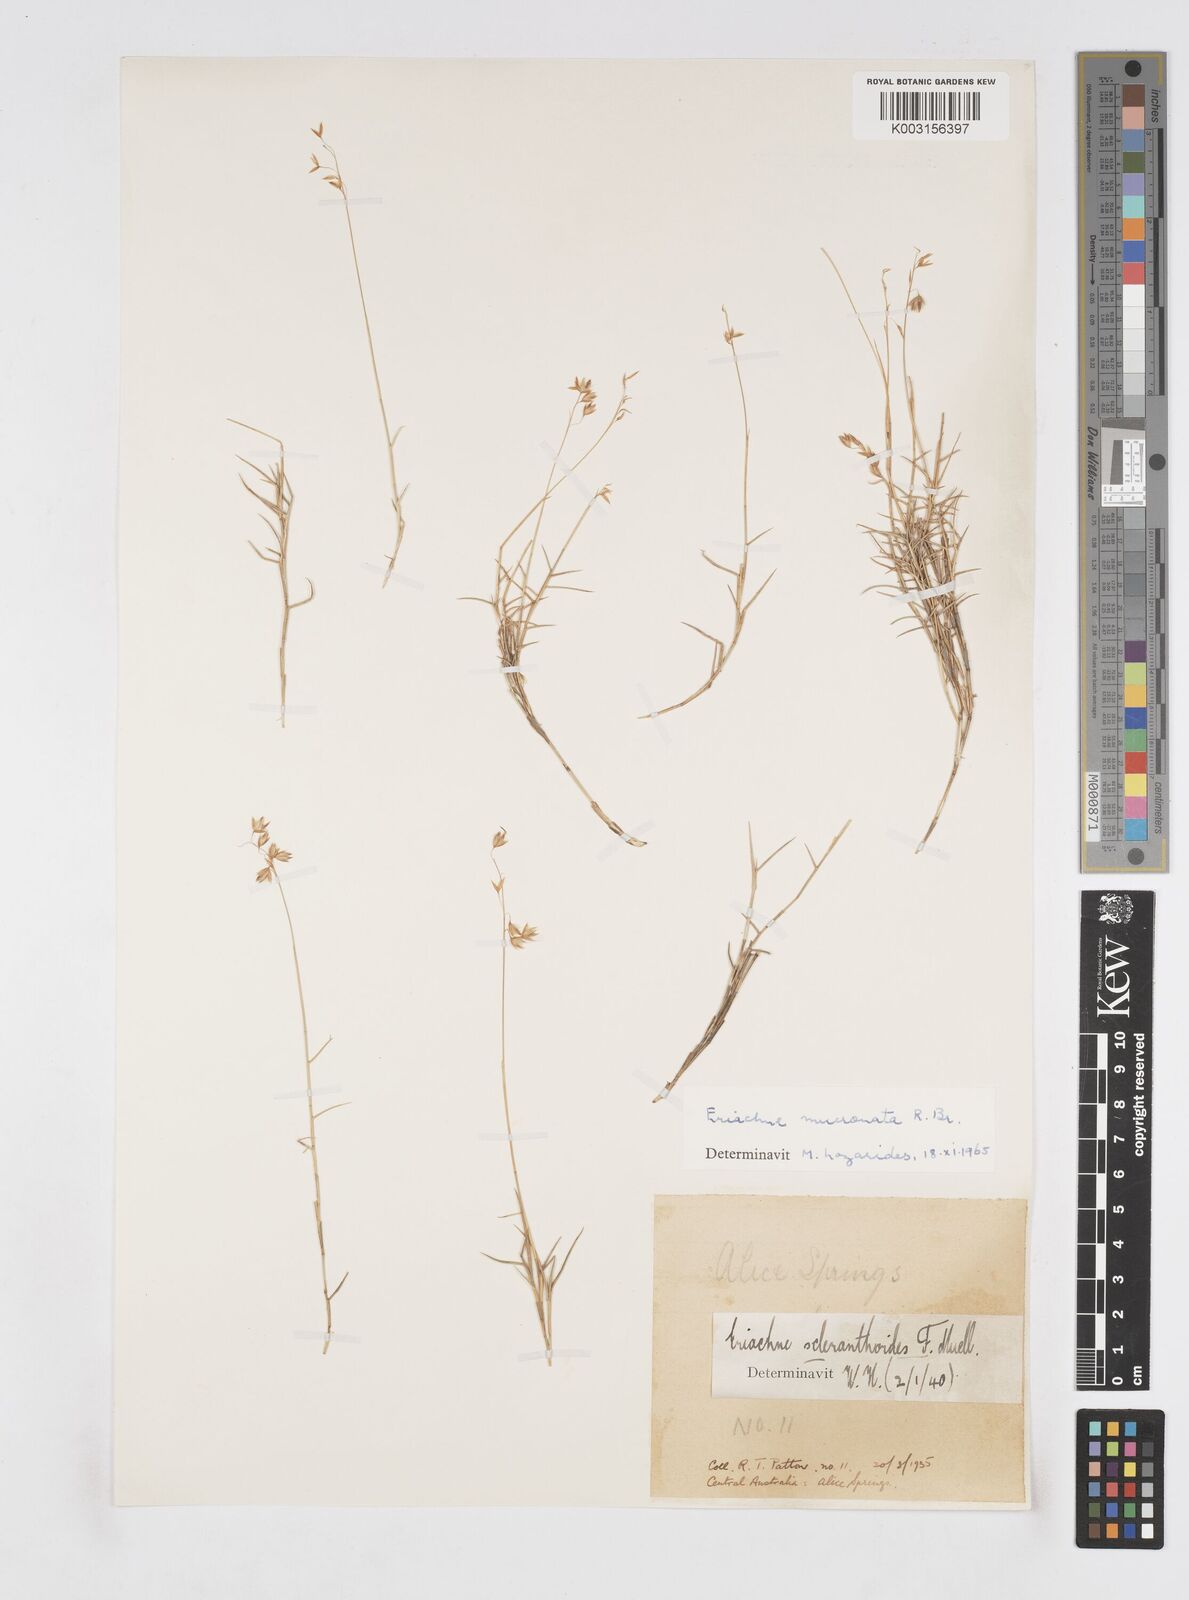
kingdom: Plantae
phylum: Tracheophyta
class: Liliopsida
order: Poales
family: Poaceae
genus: Eriachne
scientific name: Eriachne mucronata
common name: Mountain wanderrie grass
